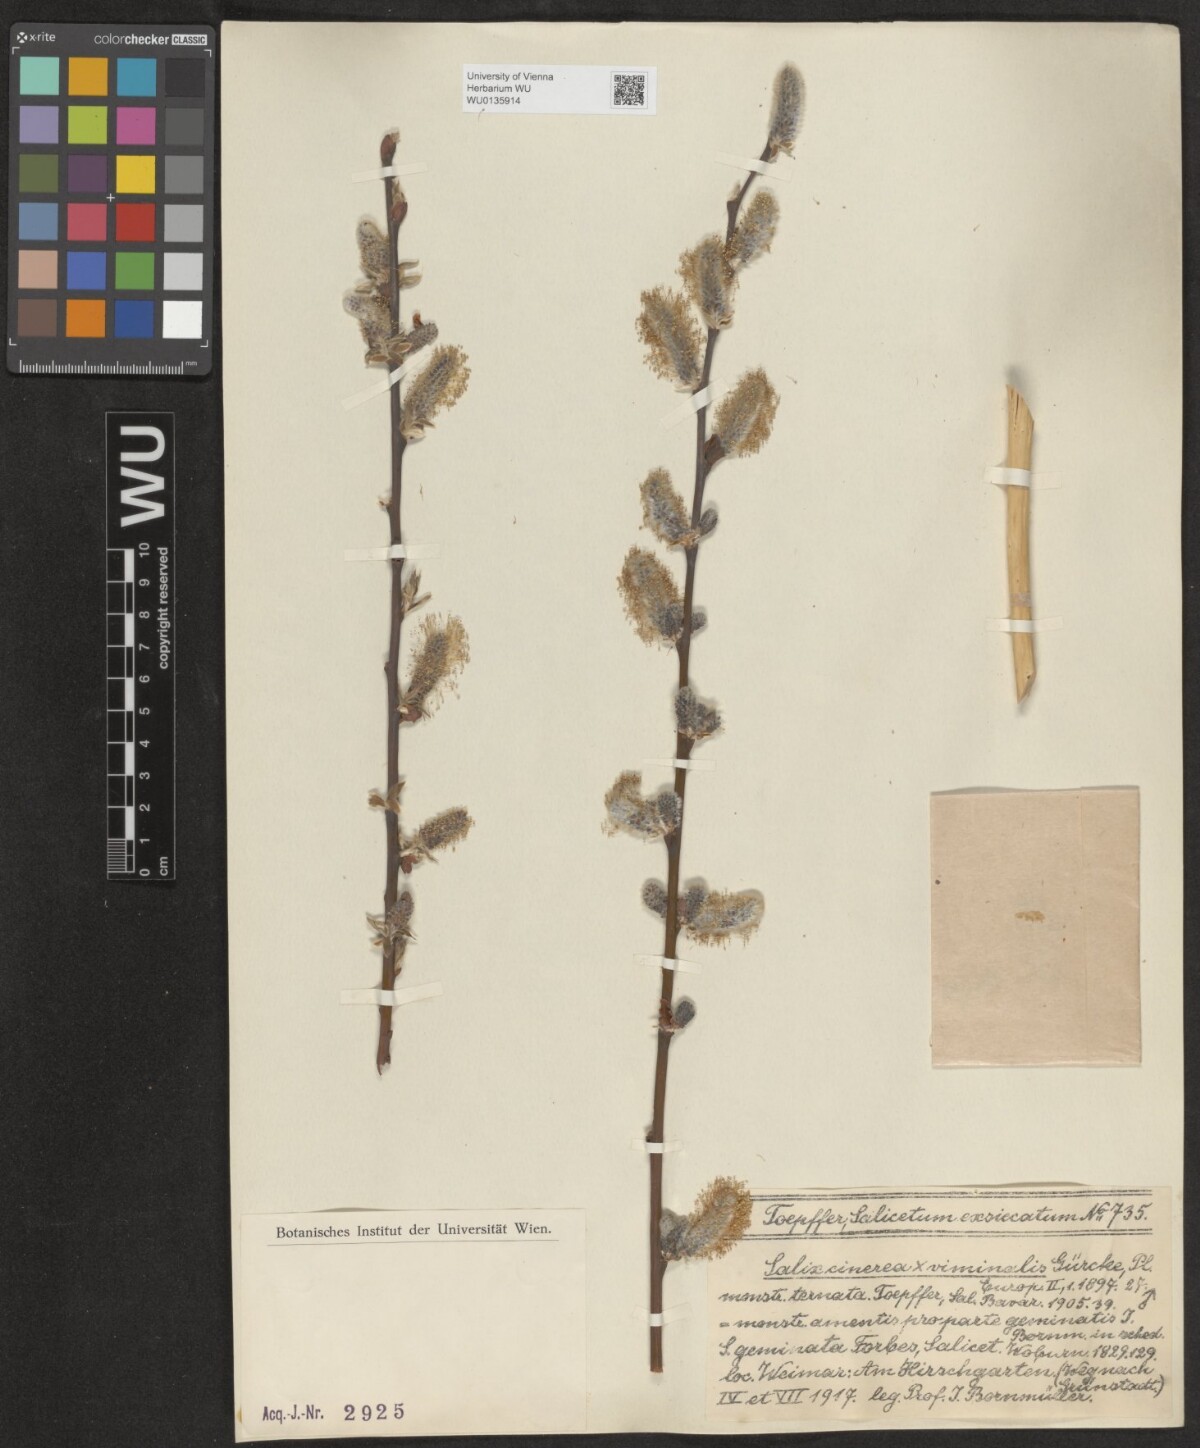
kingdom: Plantae
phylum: Tracheophyta
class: Magnoliopsida
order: Malpighiales
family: Salicaceae
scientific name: Salicaceae
